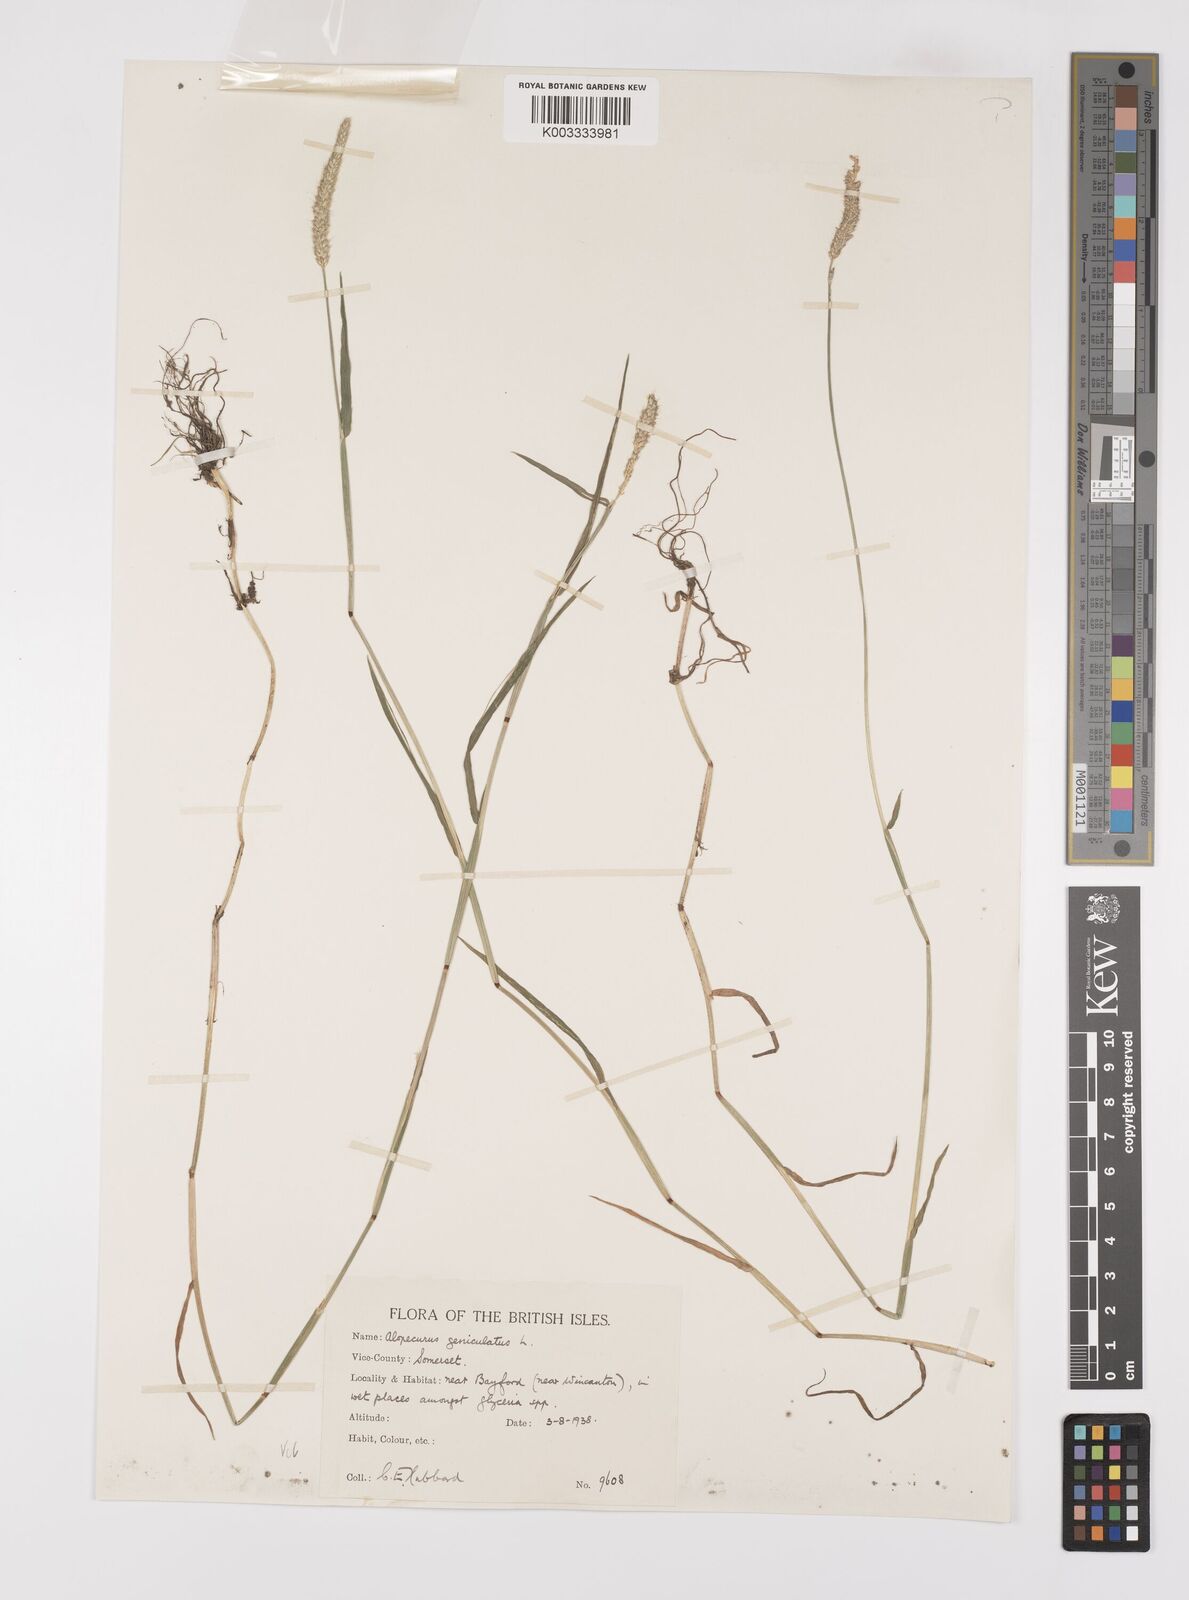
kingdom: Plantae
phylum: Tracheophyta
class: Liliopsida
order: Poales
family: Poaceae
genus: Alopecurus
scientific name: Alopecurus geniculatus
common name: Water foxtail
